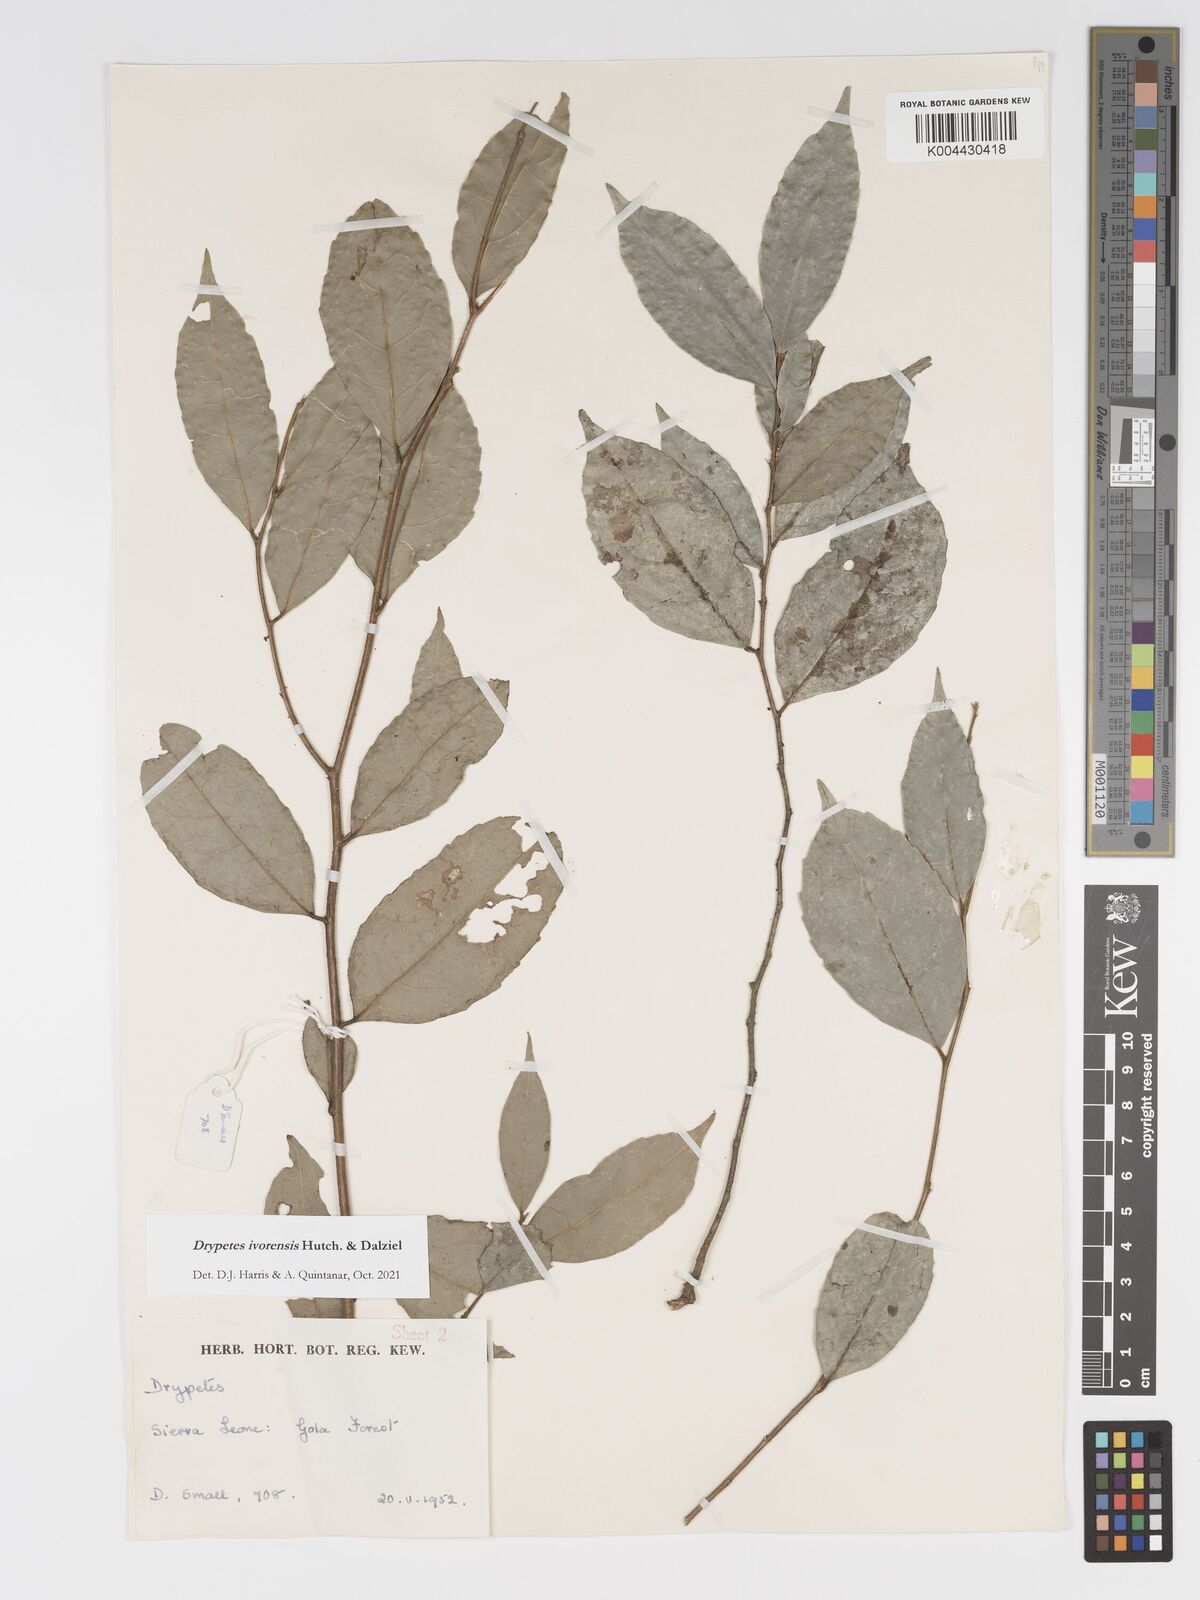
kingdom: Plantae
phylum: Tracheophyta
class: Magnoliopsida
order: Malpighiales
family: Putranjivaceae
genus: Drypetes
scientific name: Drypetes ivorensis
